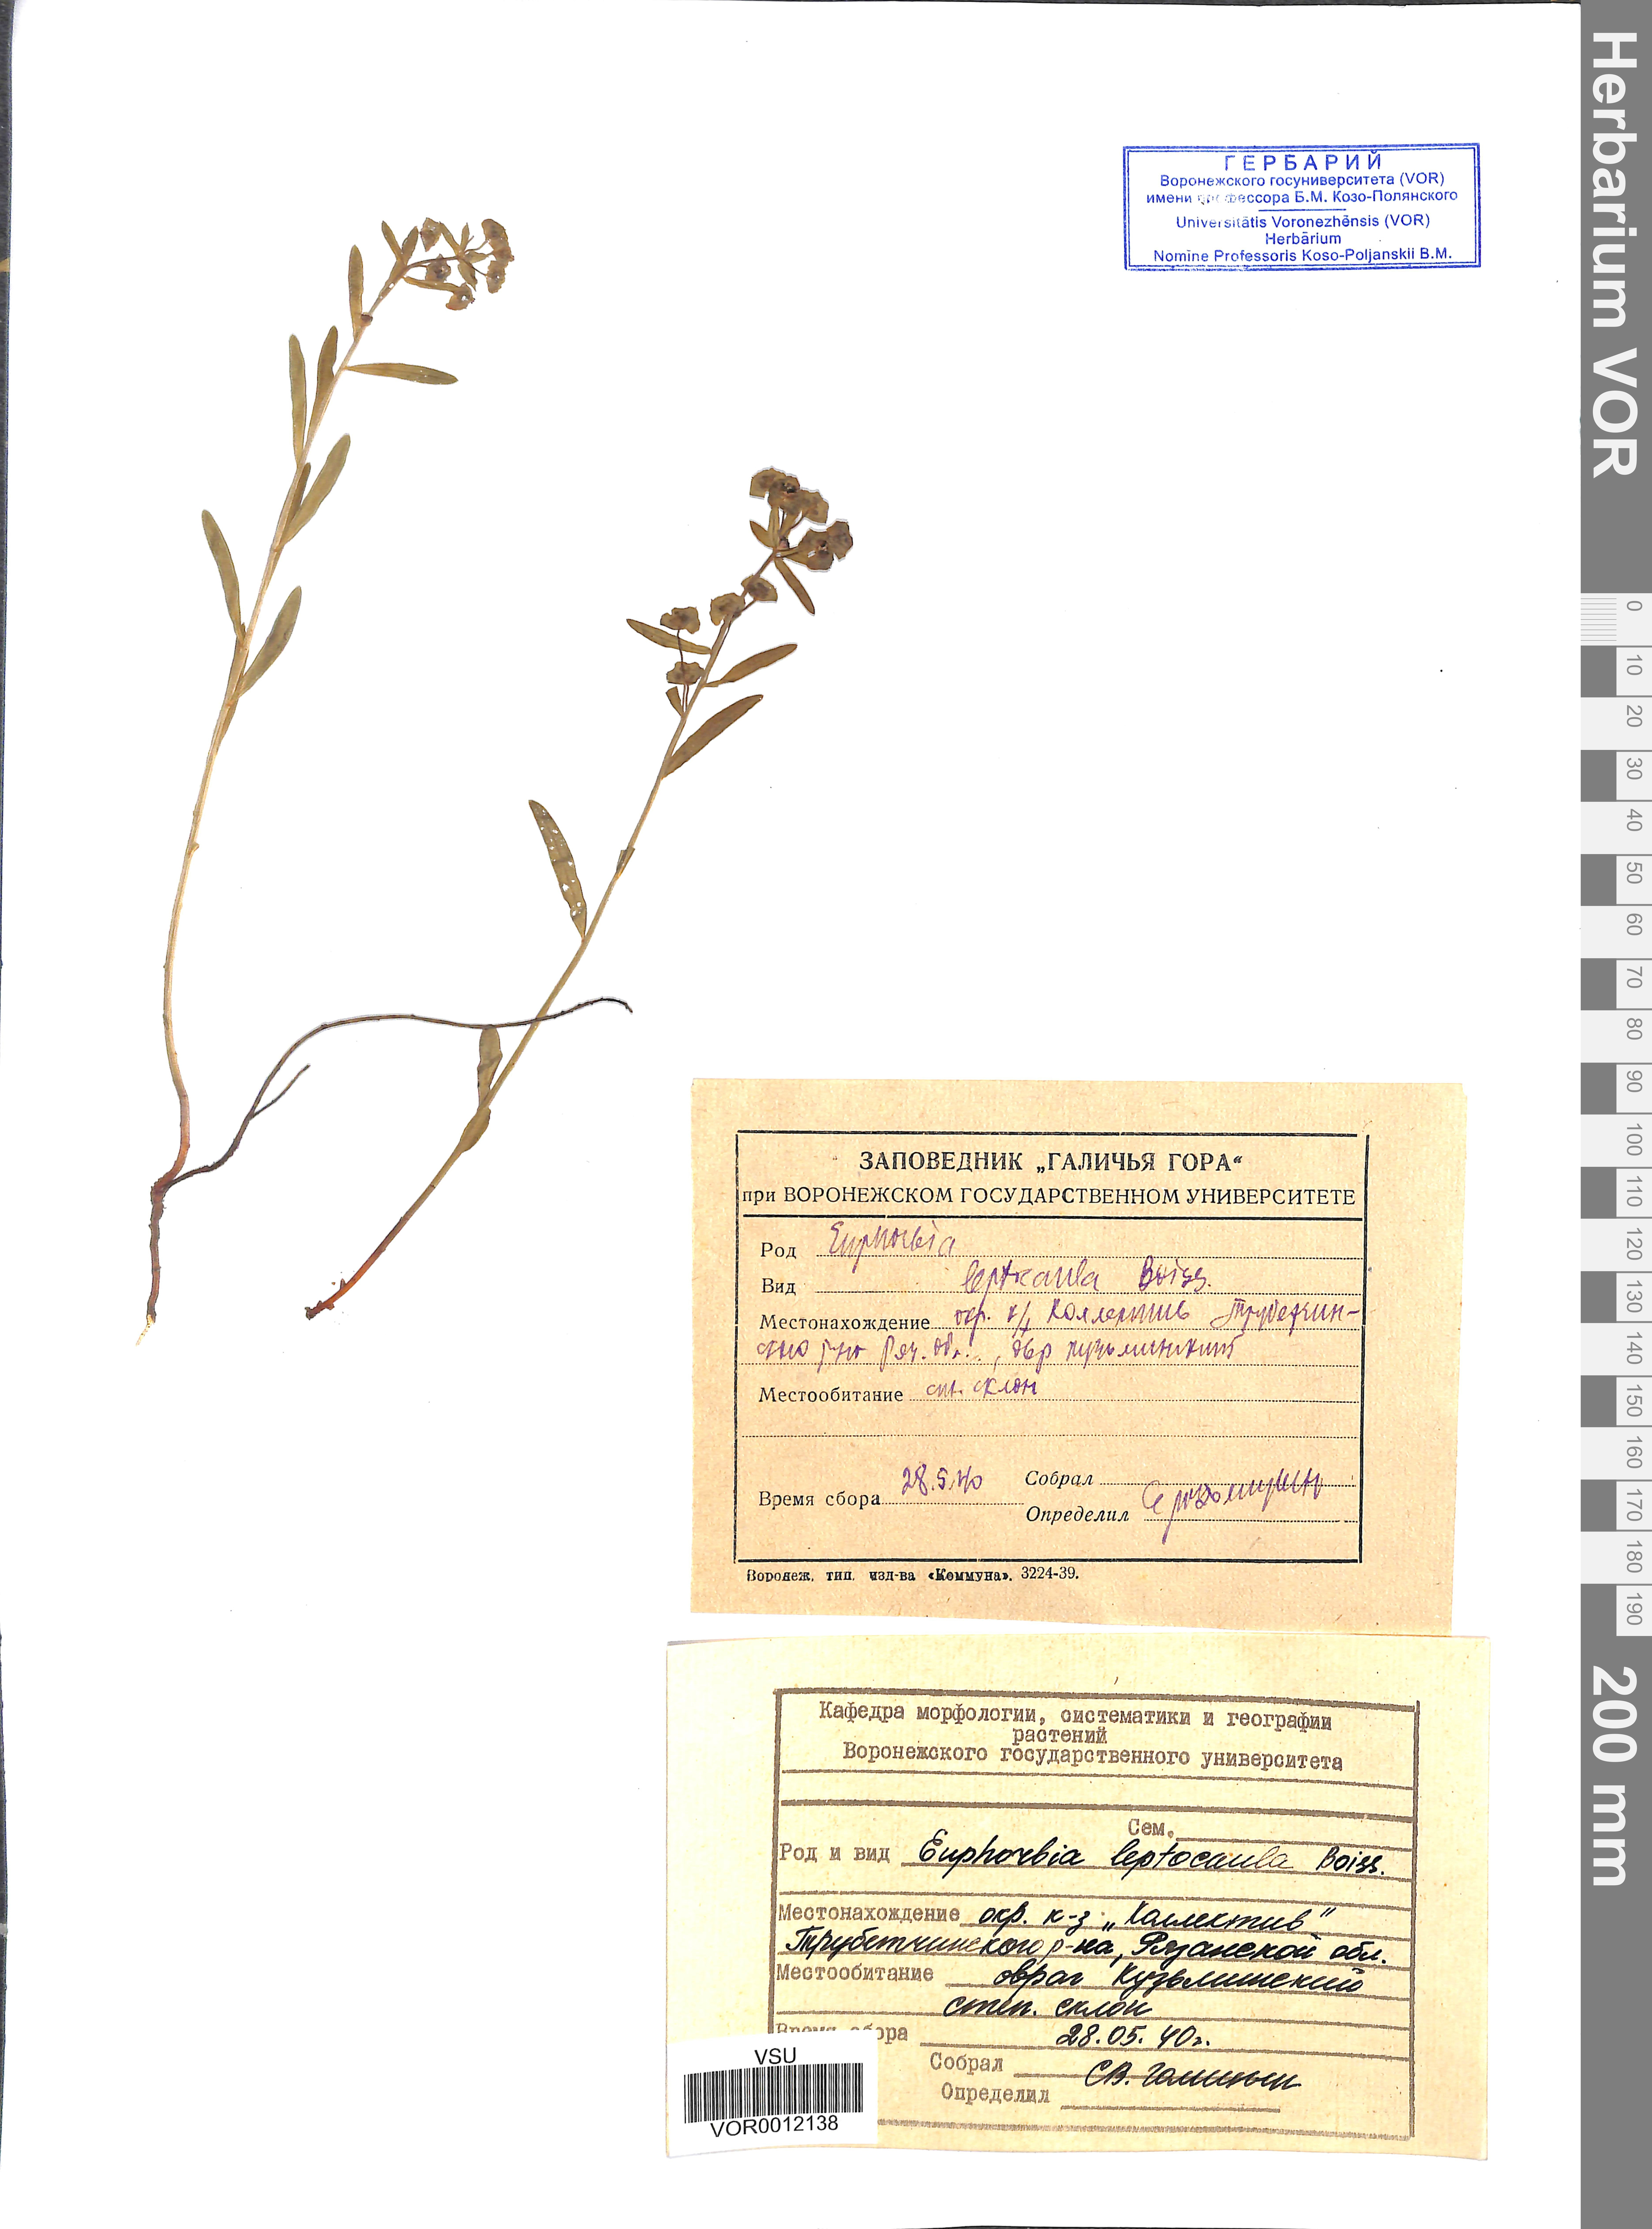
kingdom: Plantae
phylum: Tracheophyta
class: Magnoliopsida
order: Malpighiales
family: Euphorbiaceae
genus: Euphorbia
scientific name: Euphorbia leptocaula
